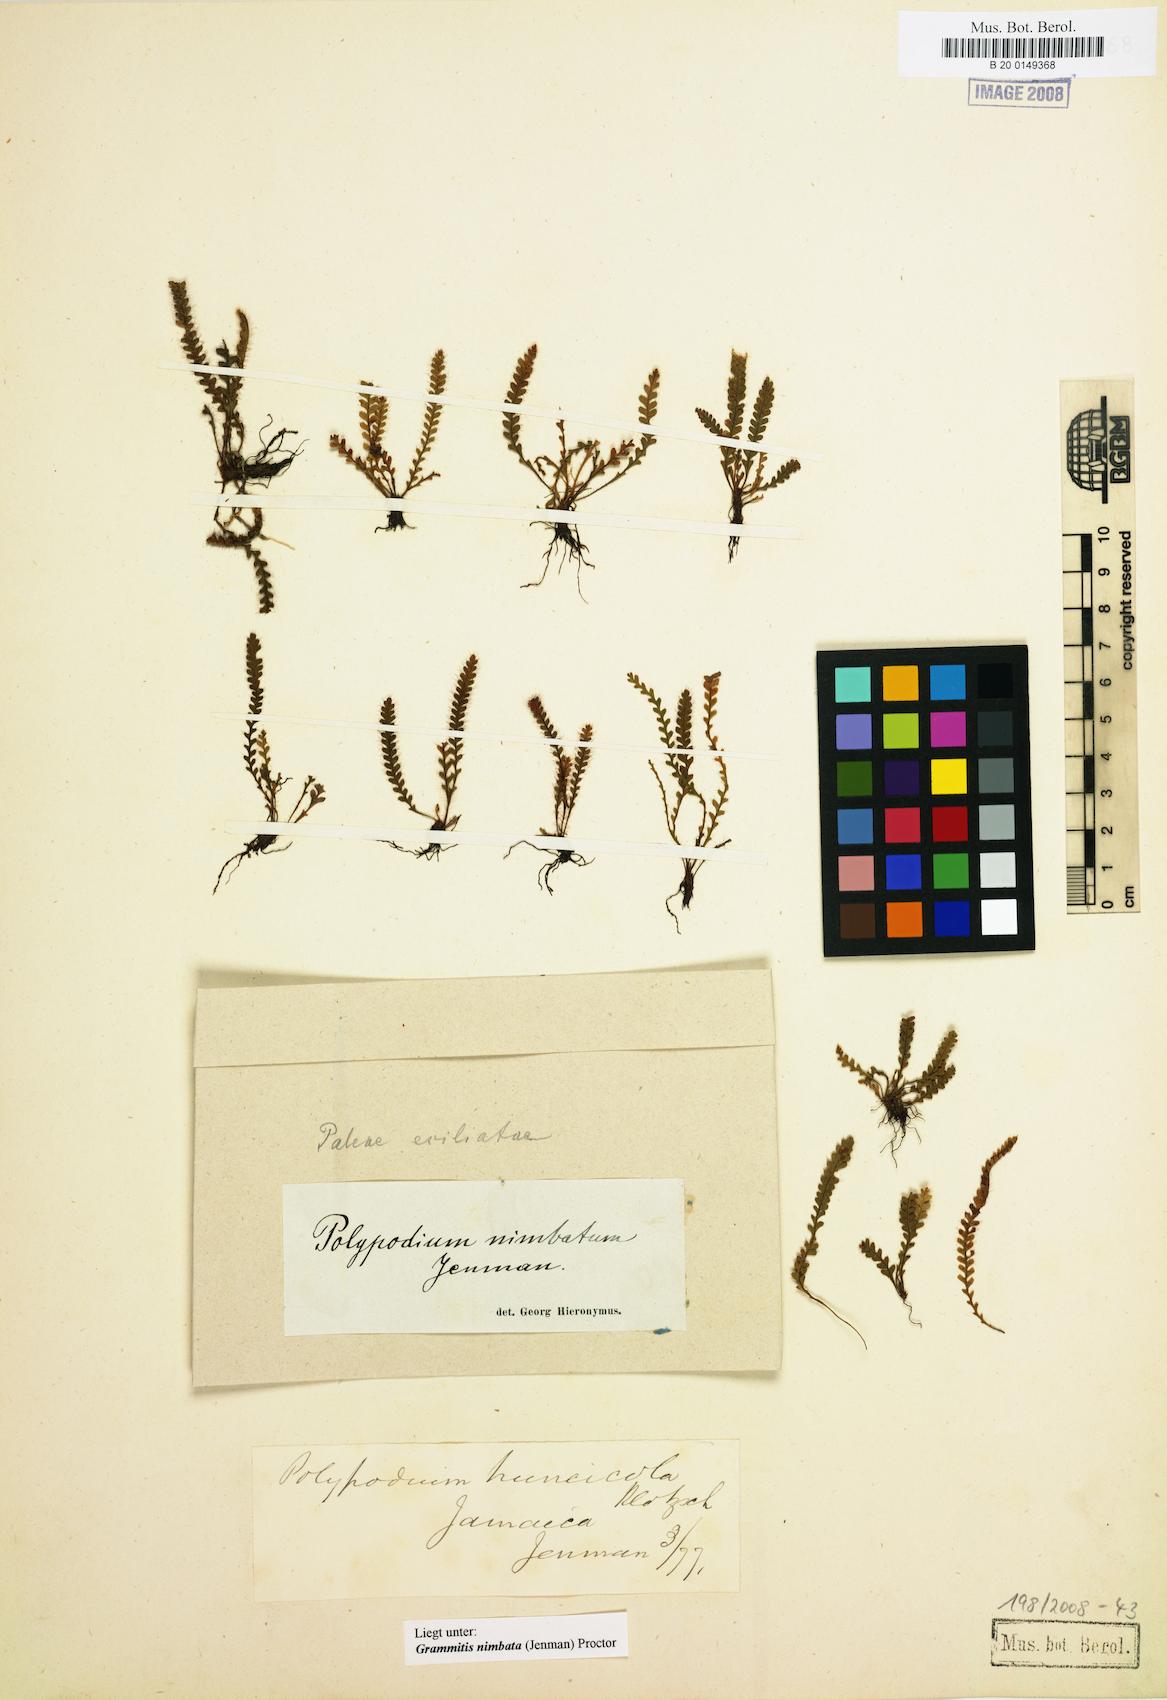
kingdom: Plantae
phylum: Tracheophyta
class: Polypodiopsida
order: Polypodiales
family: Polypodiaceae
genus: Moranopteris
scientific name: Moranopteris basiattenuata
